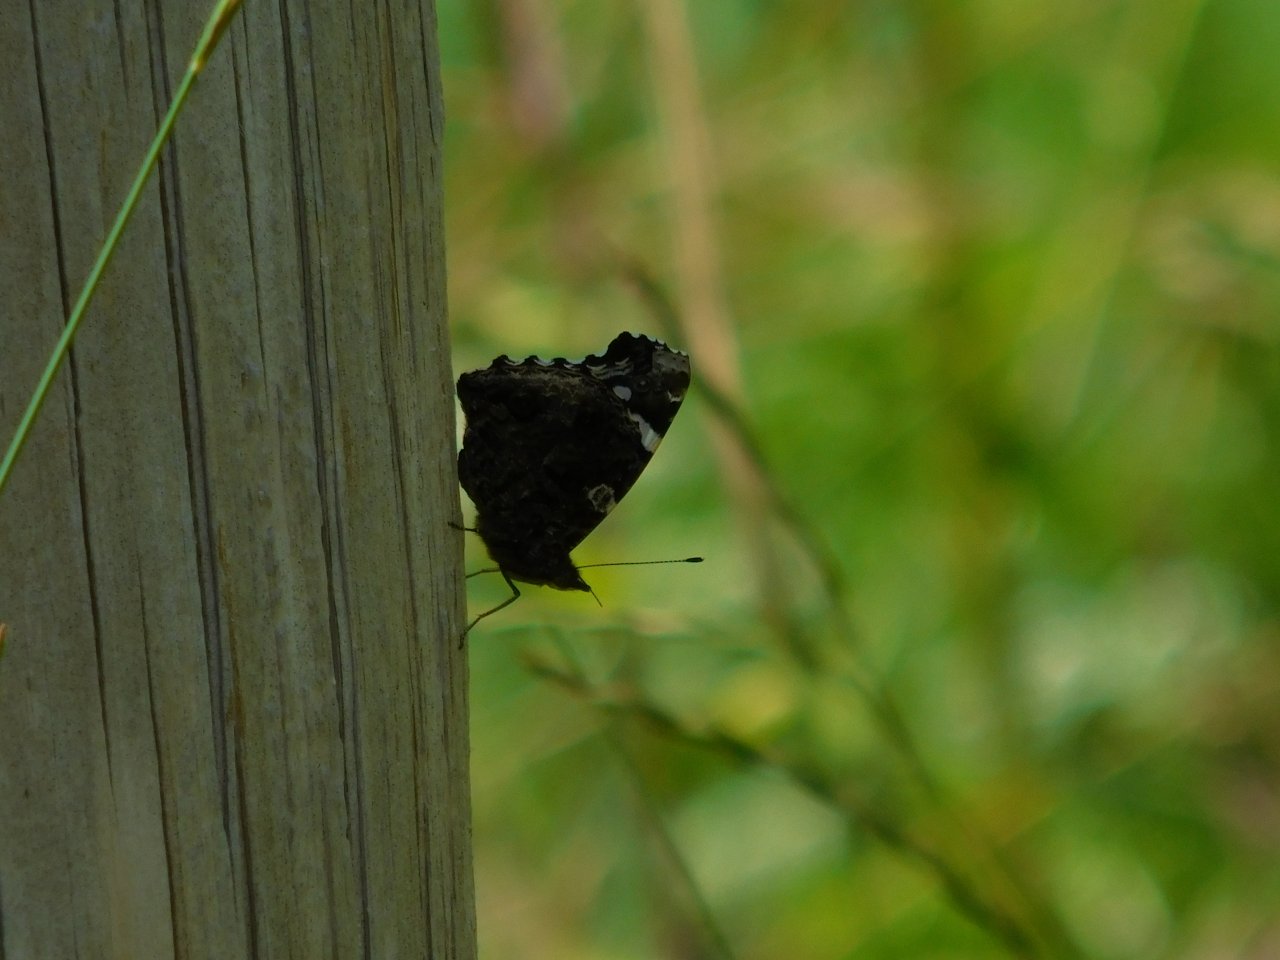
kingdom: Animalia
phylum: Arthropoda
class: Insecta
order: Lepidoptera
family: Nymphalidae
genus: Vanessa
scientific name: Vanessa atalanta
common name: Red Admiral
